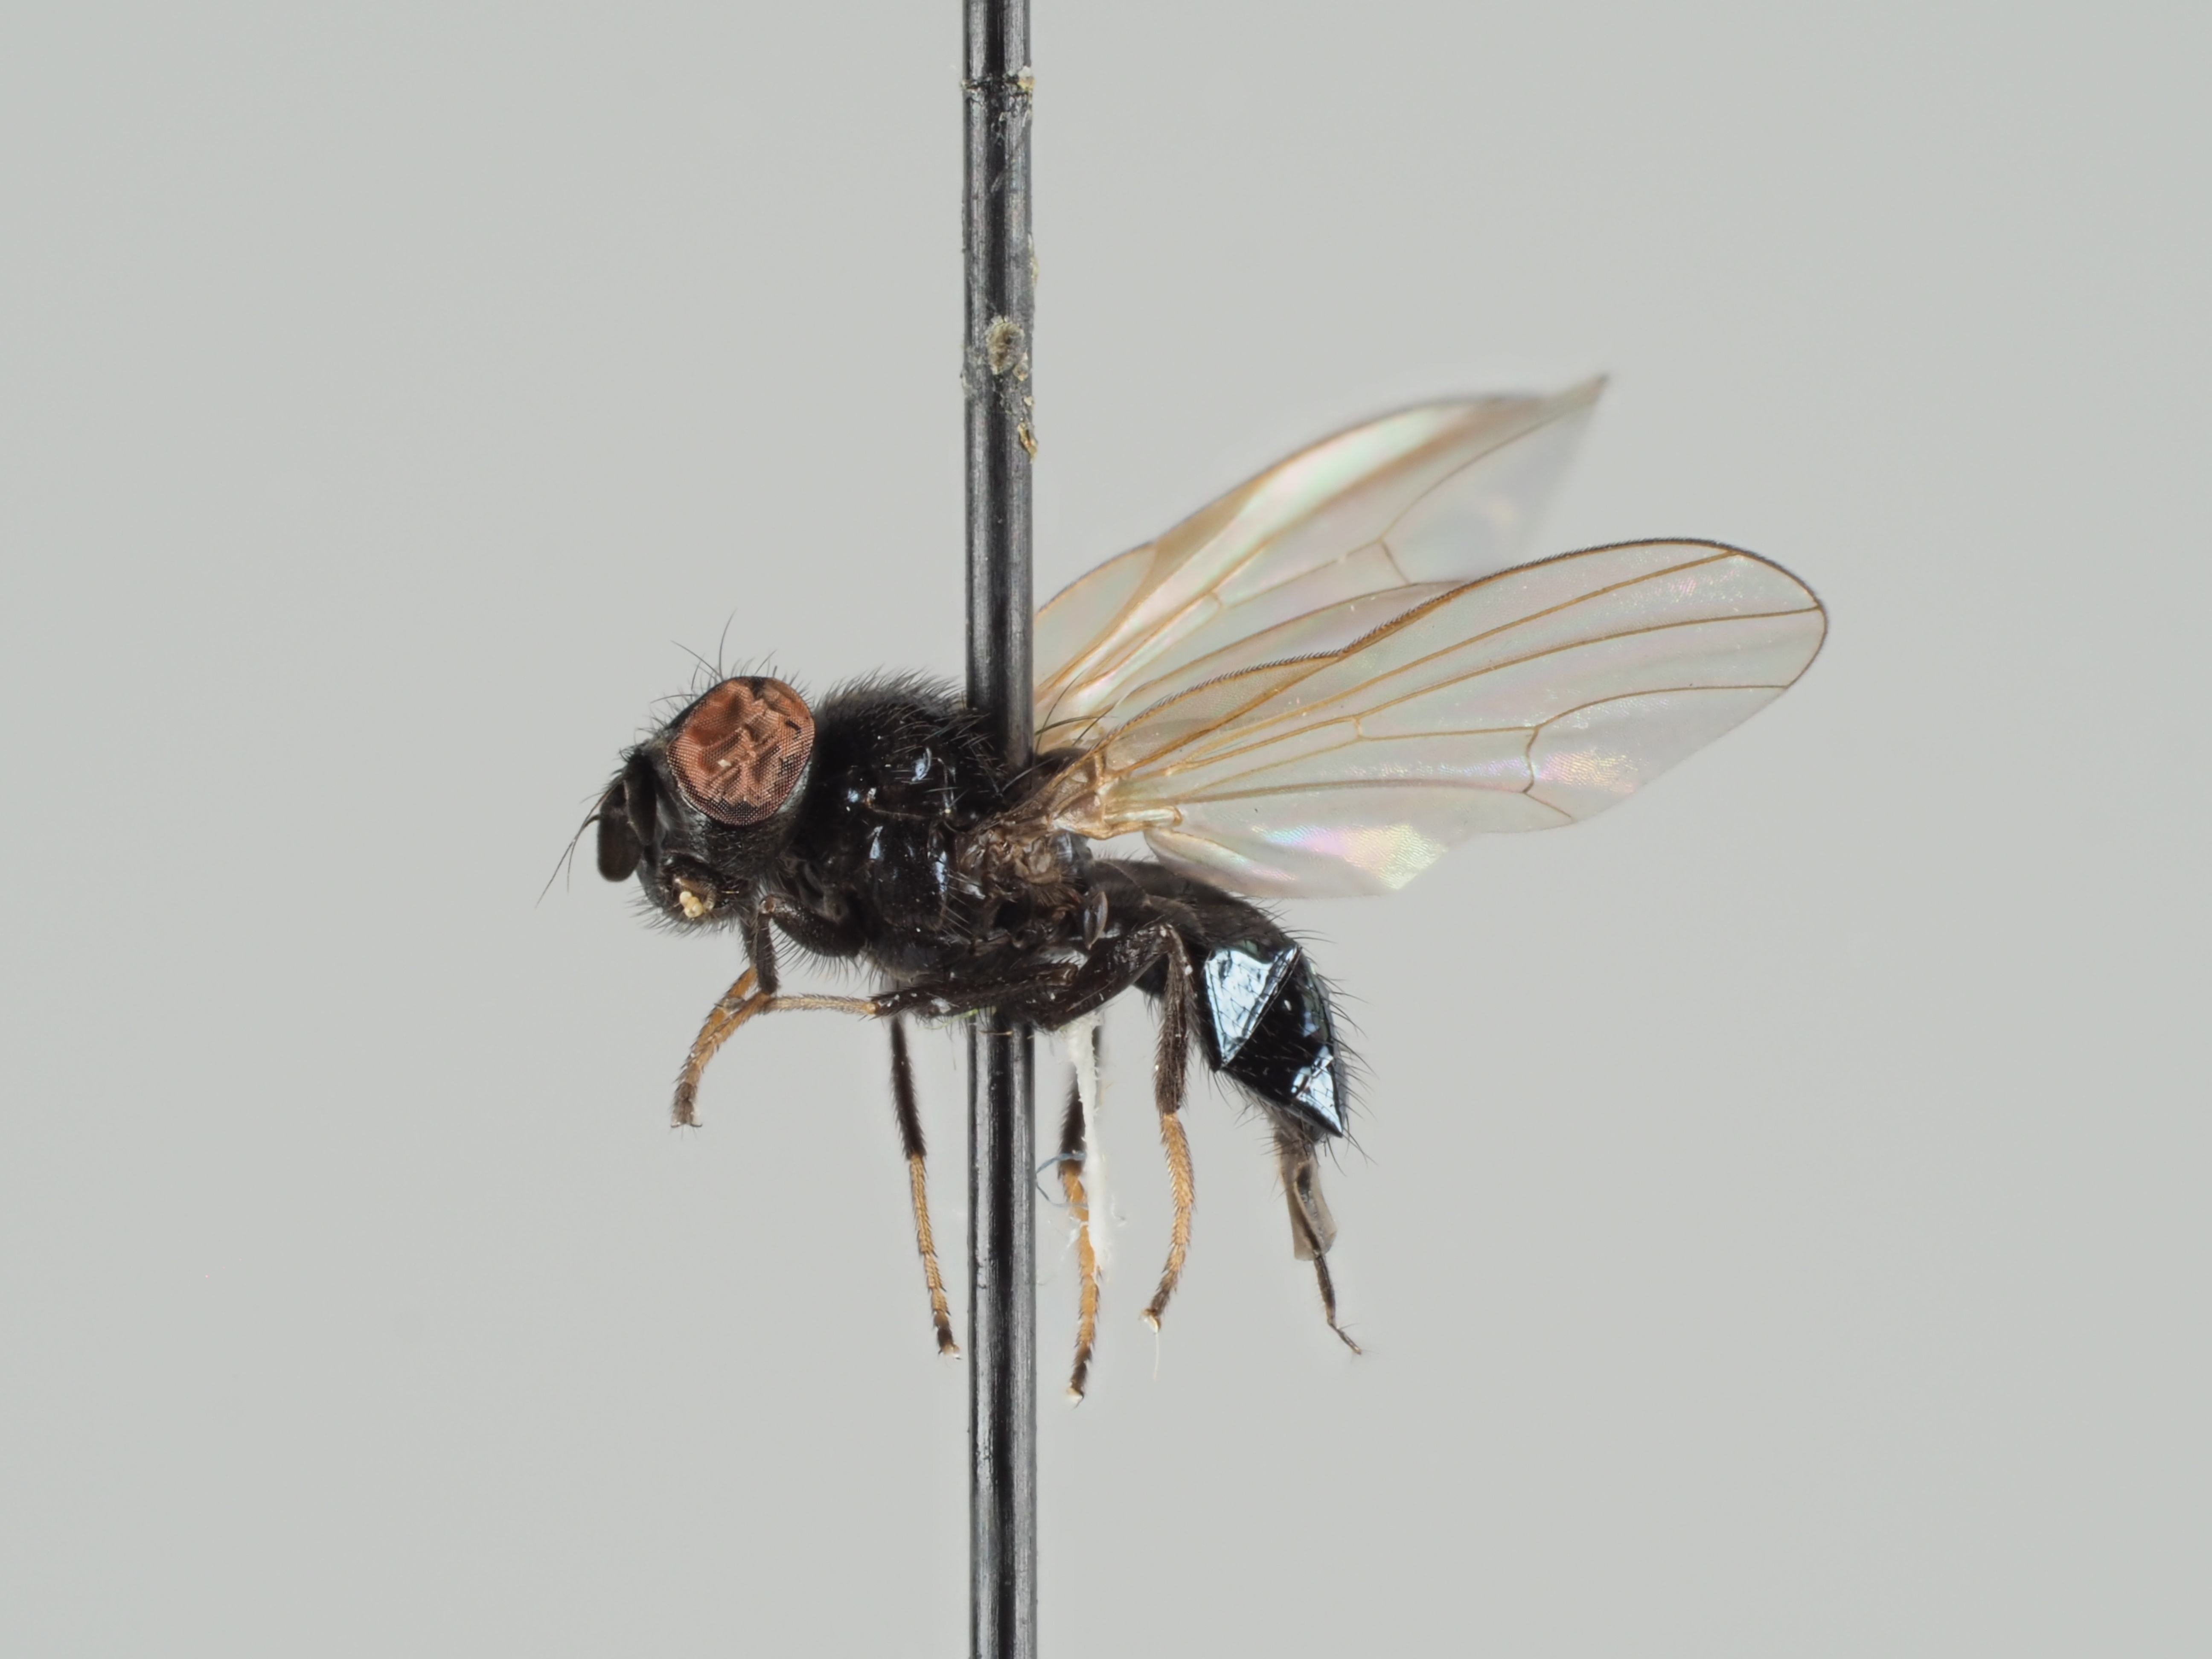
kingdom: Animalia
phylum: Arthropoda
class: Insecta
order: Diptera
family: Lonchaeidae
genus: Lonchaea
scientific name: Lonchaea nitens
